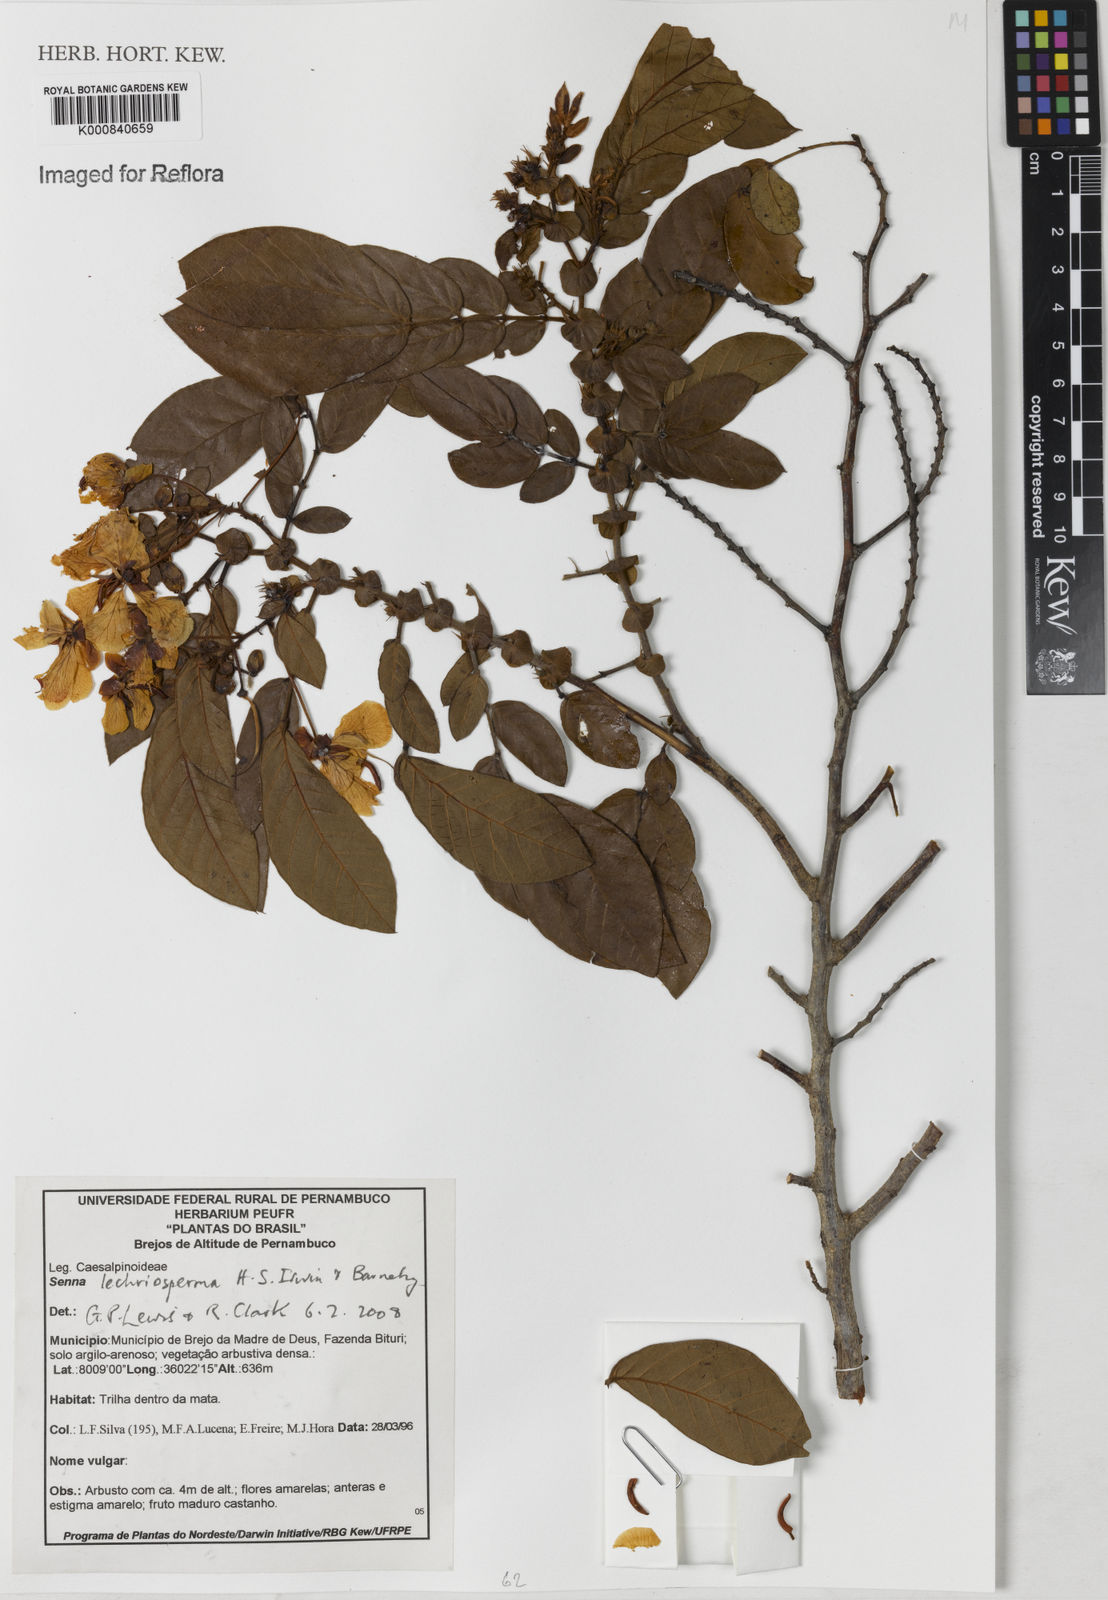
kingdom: Plantae
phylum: Tracheophyta
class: Magnoliopsida
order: Fabales
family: Fabaceae
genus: Senna
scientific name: Senna lechriosperma
